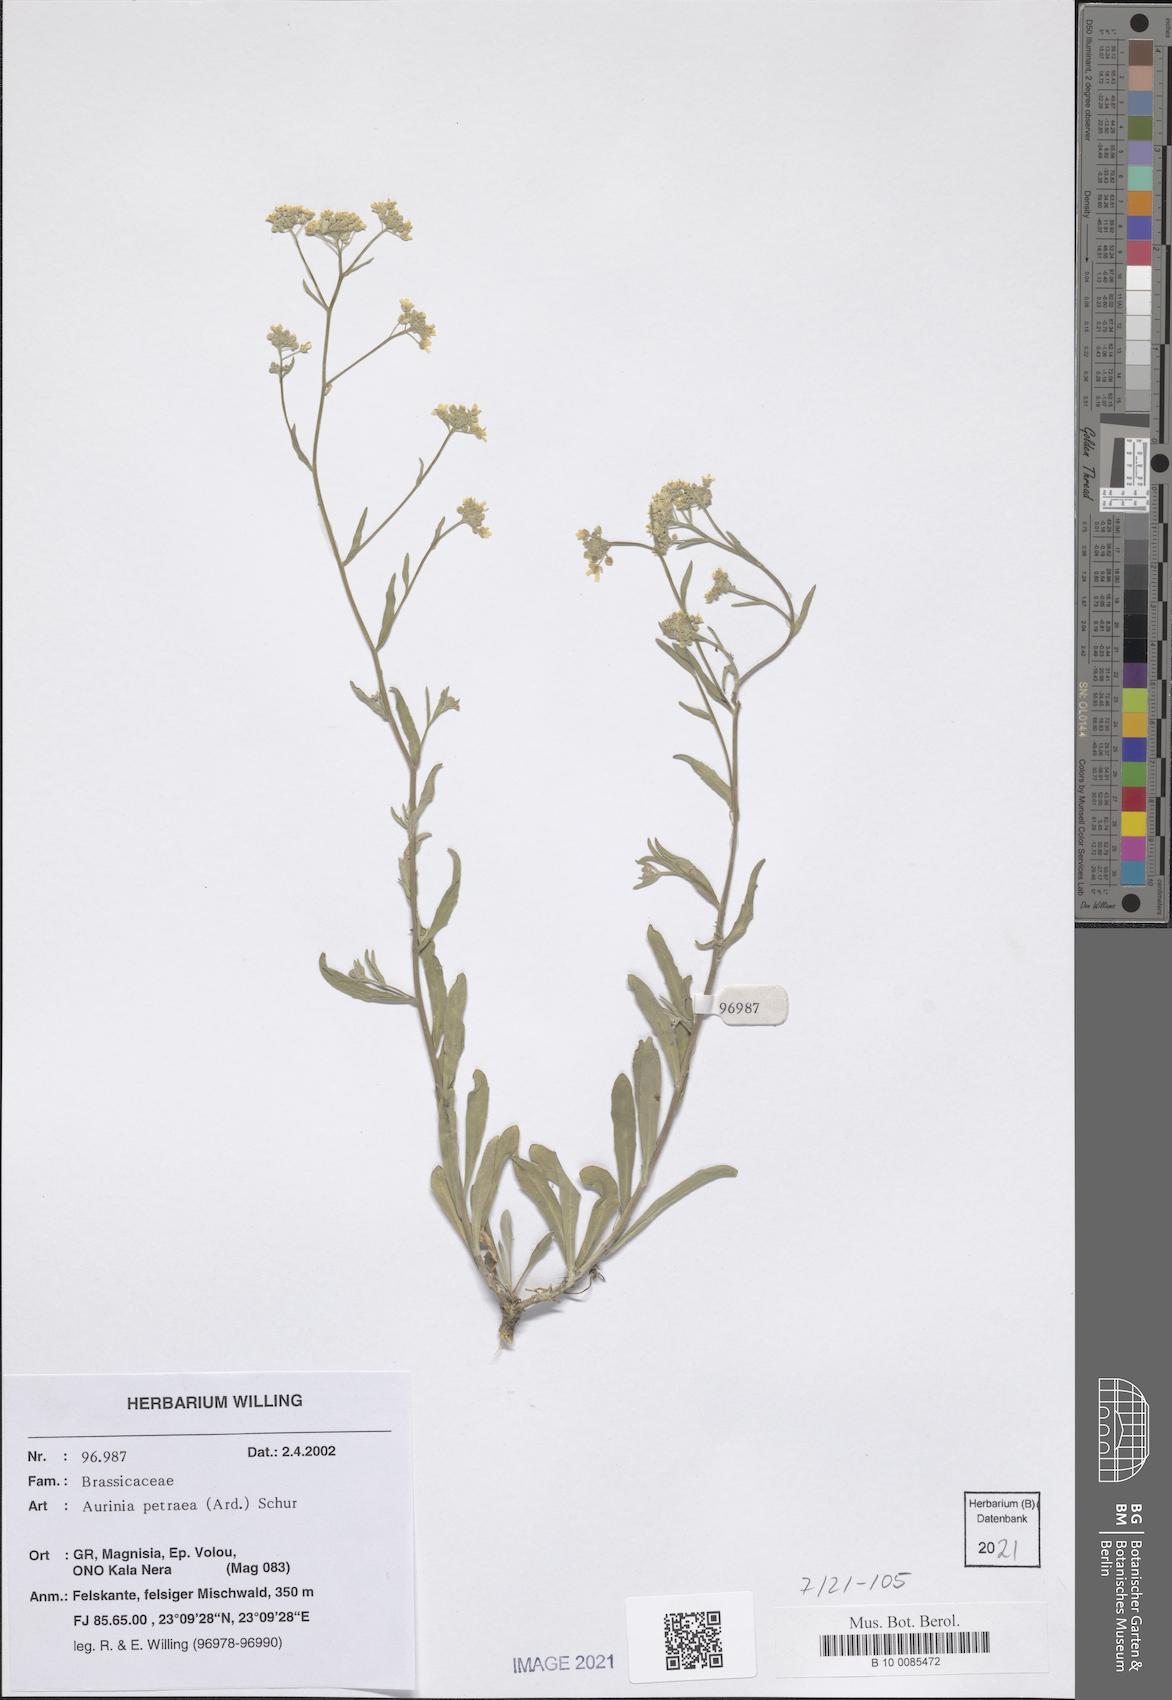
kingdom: Plantae
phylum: Tracheophyta
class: Magnoliopsida
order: Brassicales
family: Brassicaceae
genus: Aurinia
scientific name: Aurinia petraea
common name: Goldentuft
